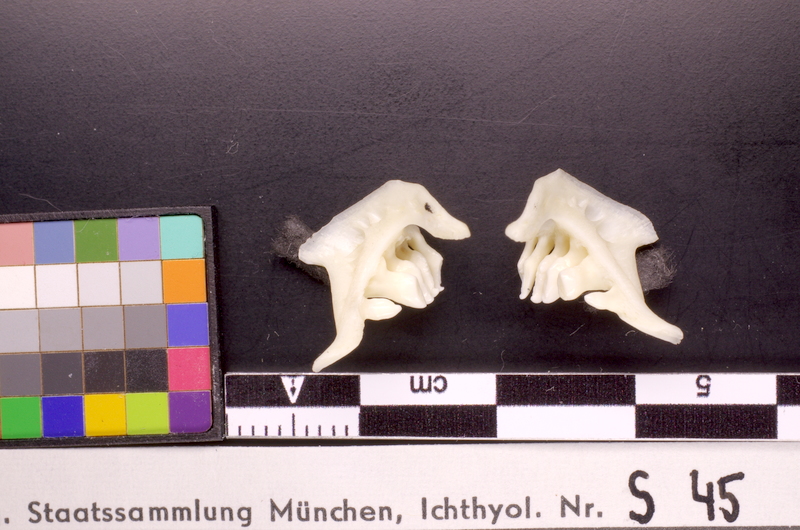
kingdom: Animalia
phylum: Chordata
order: Cypriniformes
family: Cyprinidae
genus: Rutilus
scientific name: Rutilus rutilus
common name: Roach
